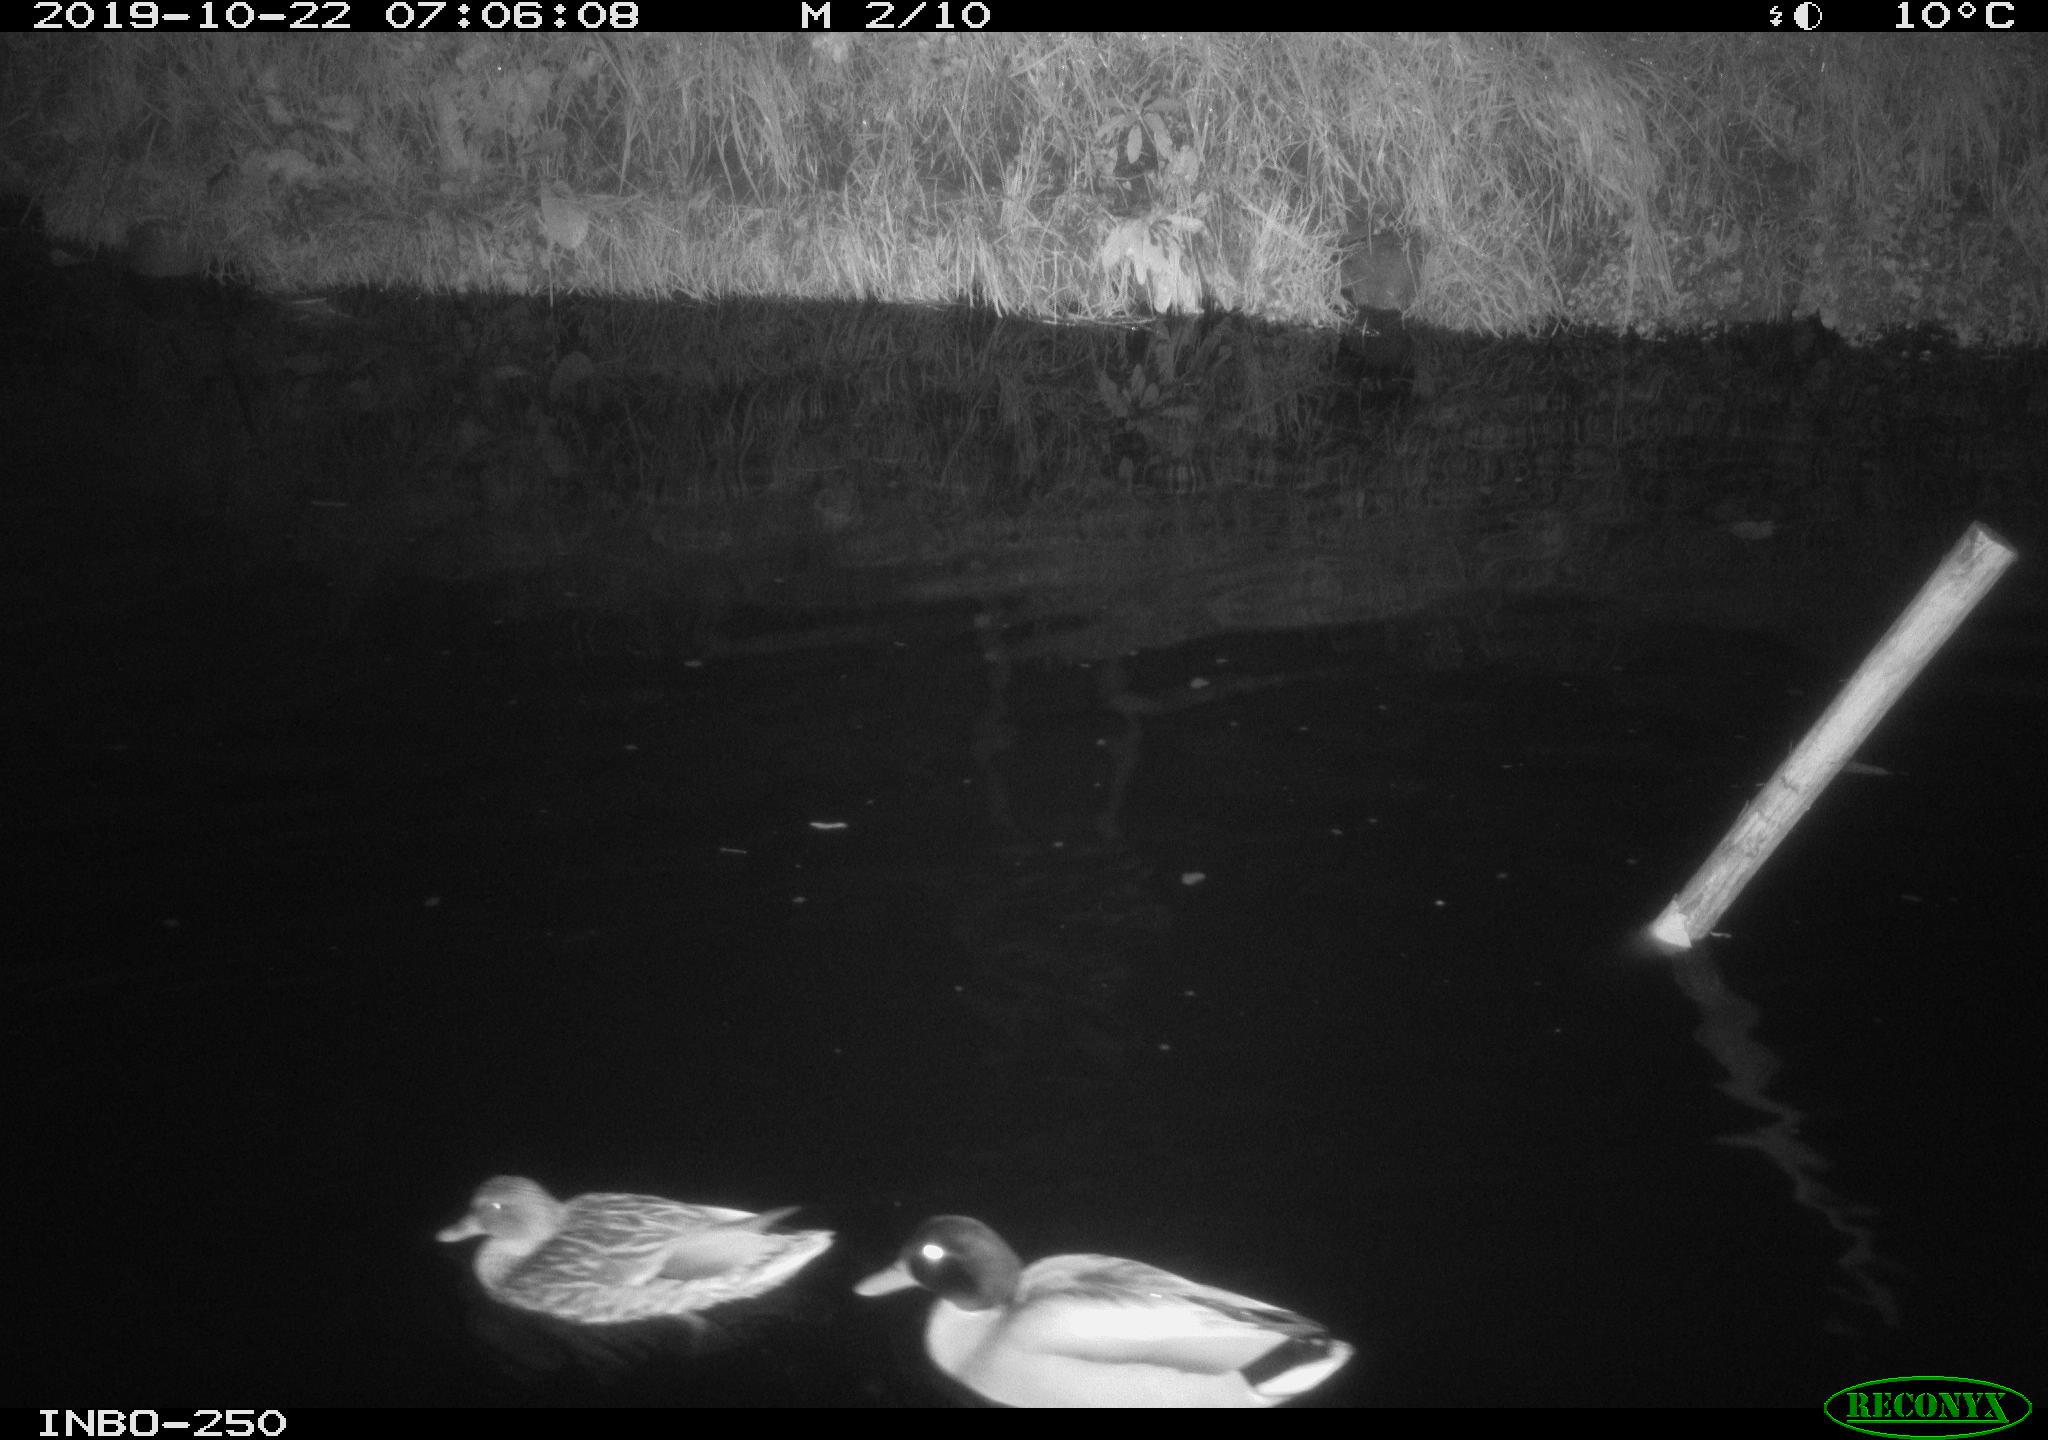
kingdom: Animalia
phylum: Chordata
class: Aves
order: Anseriformes
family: Anatidae
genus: Anas
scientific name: Anas platyrhynchos
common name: Mallard
